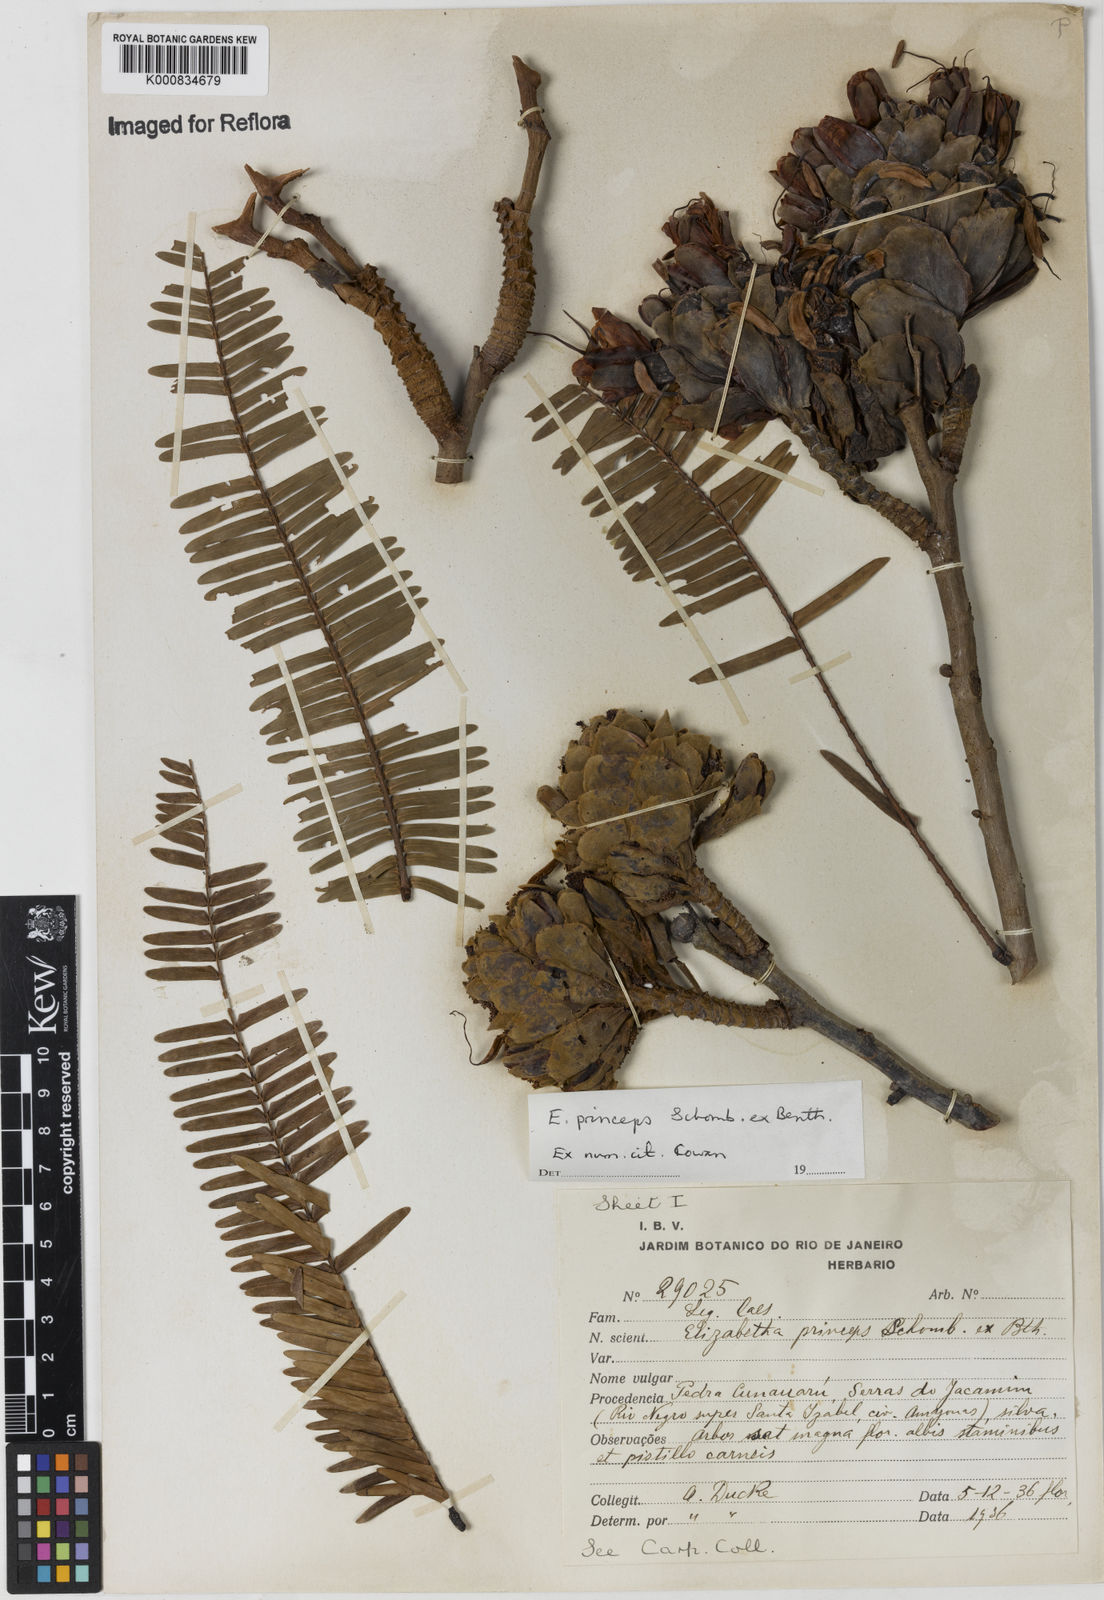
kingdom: Plantae
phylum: Tracheophyta
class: Magnoliopsida
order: Fabales
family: Fabaceae
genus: Paloue
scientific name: Paloue princeps
